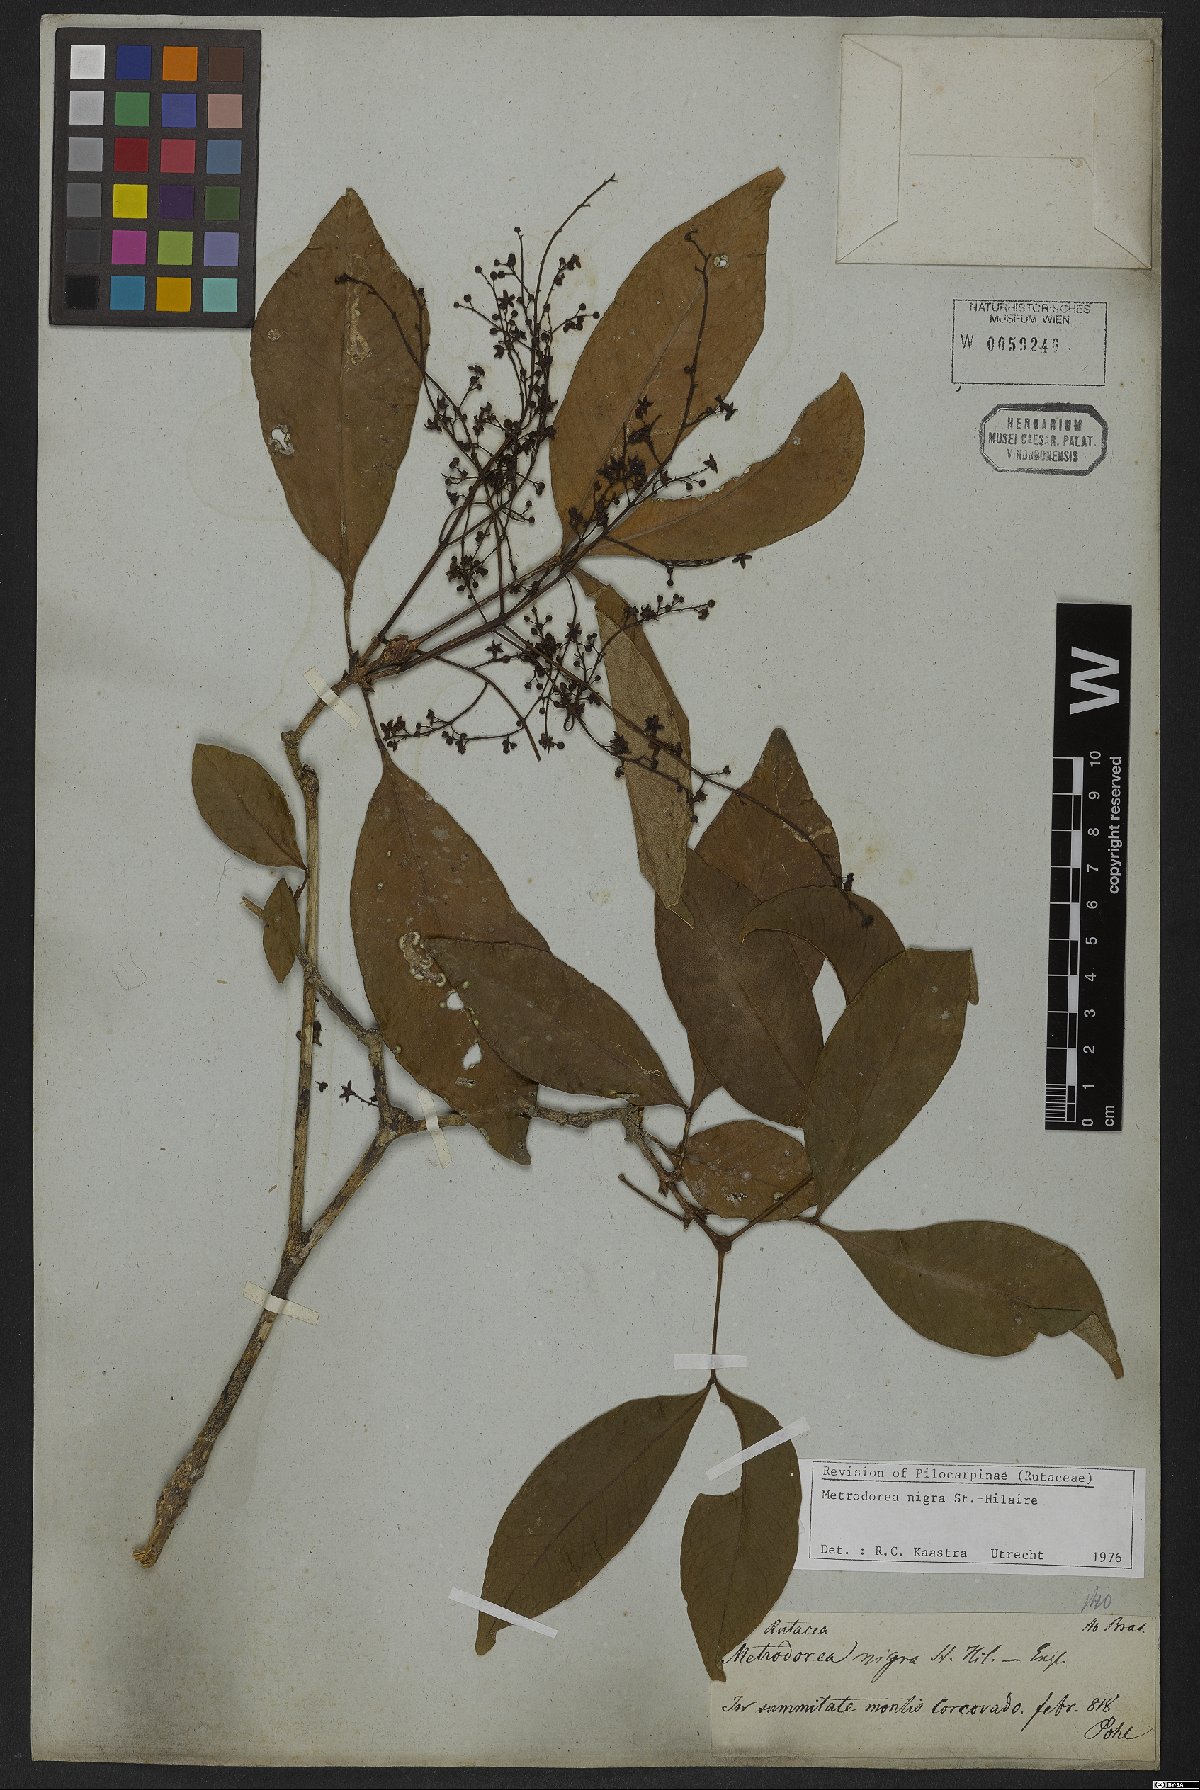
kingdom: Plantae
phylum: Tracheophyta
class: Magnoliopsida
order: Sapindales
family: Rutaceae
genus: Metrodorea
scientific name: Metrodorea nigra
